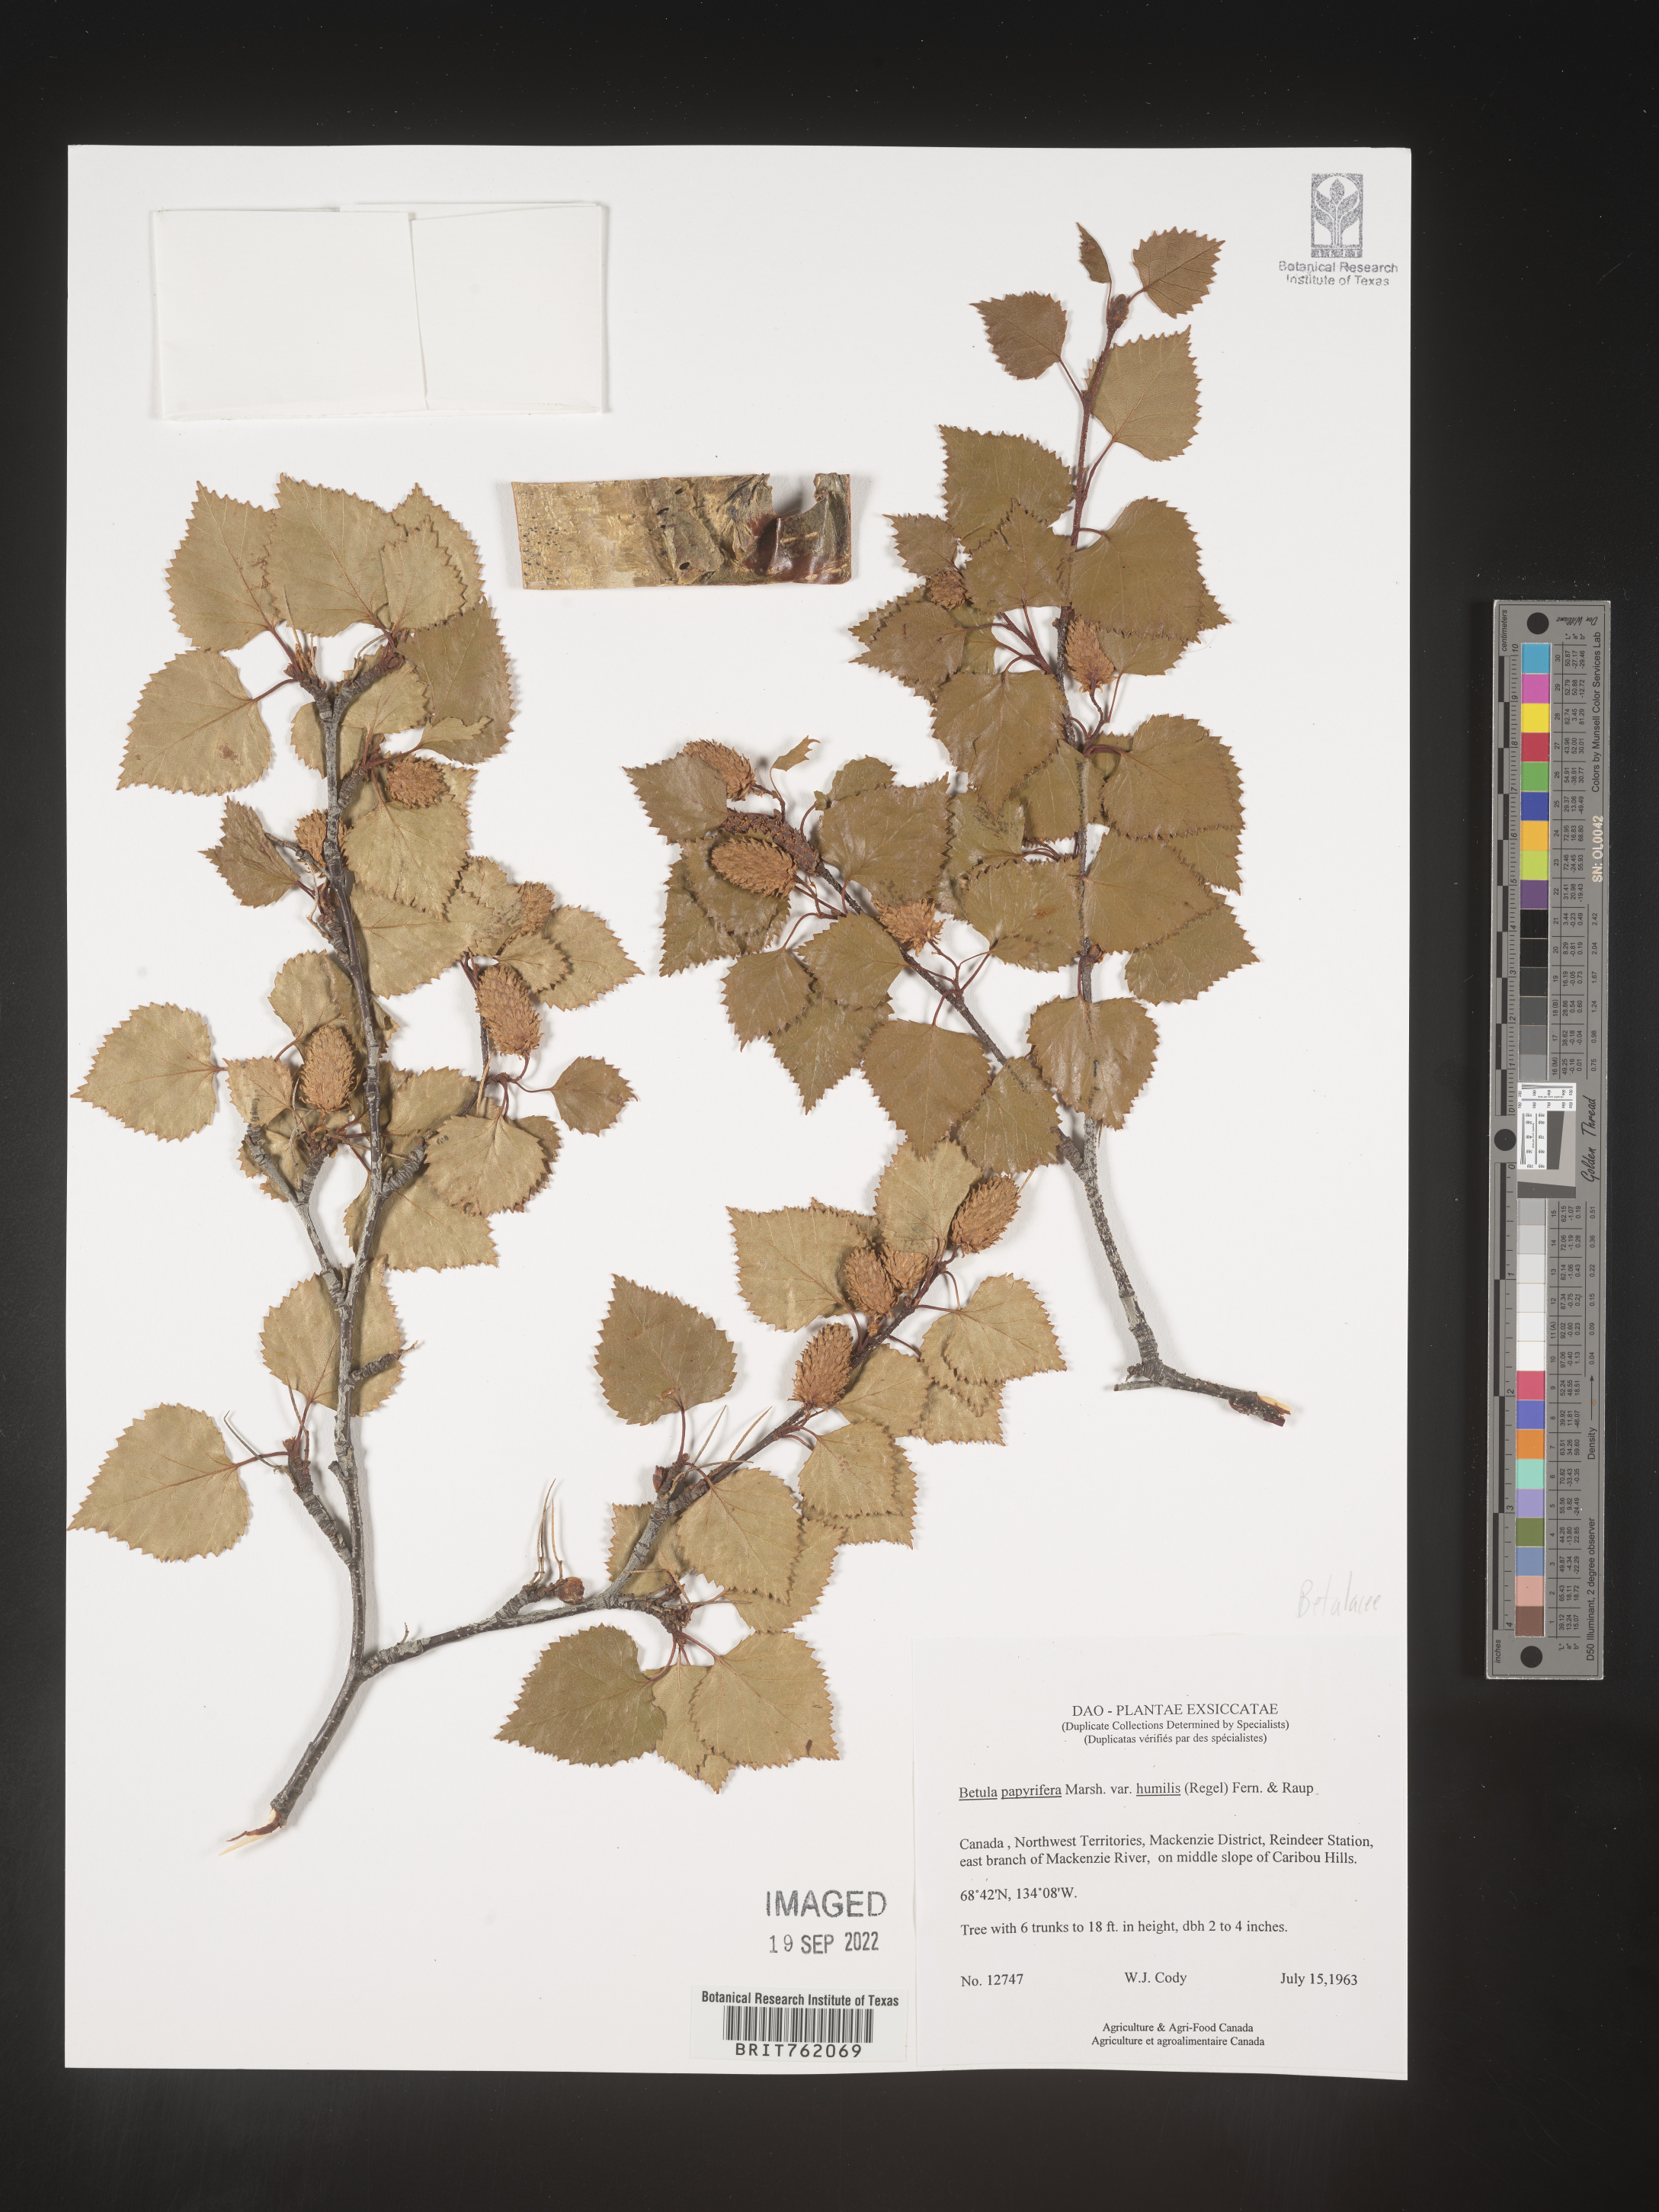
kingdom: Plantae
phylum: Tracheophyta
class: Magnoliopsida
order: Fagales
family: Betulaceae
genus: Betula
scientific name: Betula papyrifera
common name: Paper birch
